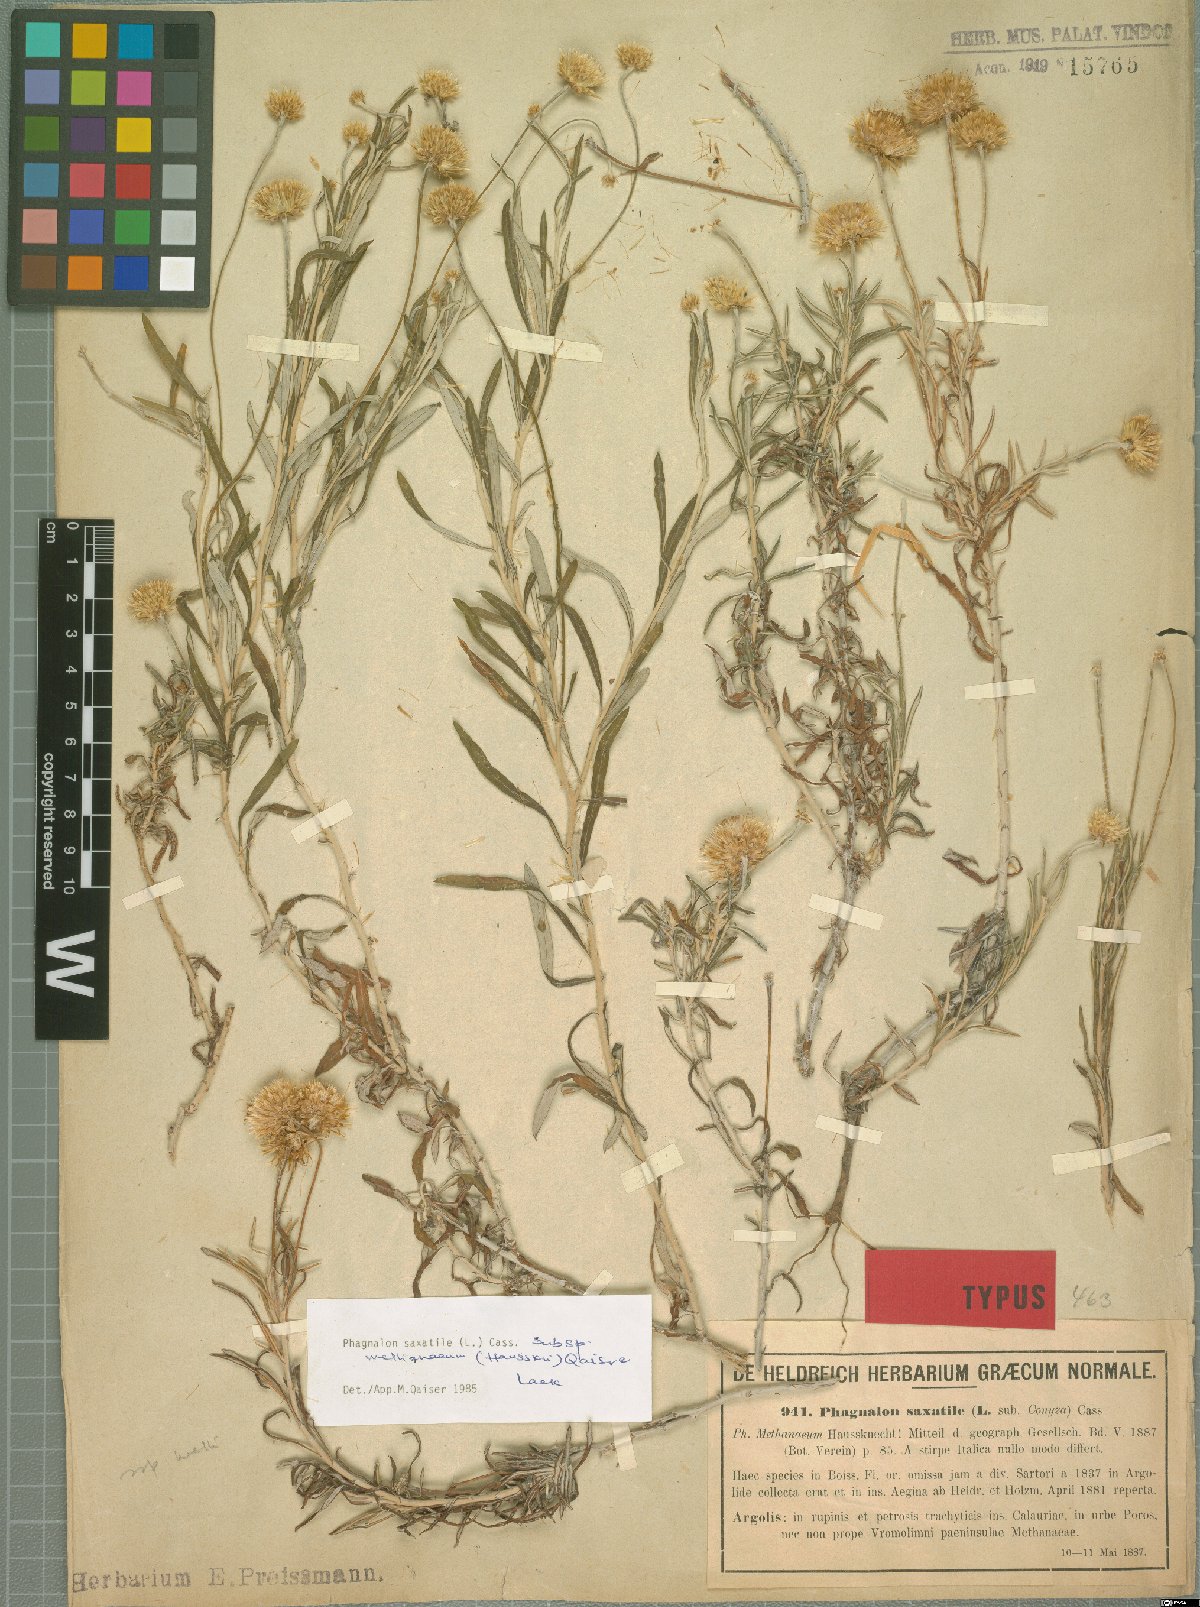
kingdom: Plantae
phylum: Tracheophyta
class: Magnoliopsida
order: Asterales
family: Asteraceae
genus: Phagnalon
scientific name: Phagnalon saxatile
